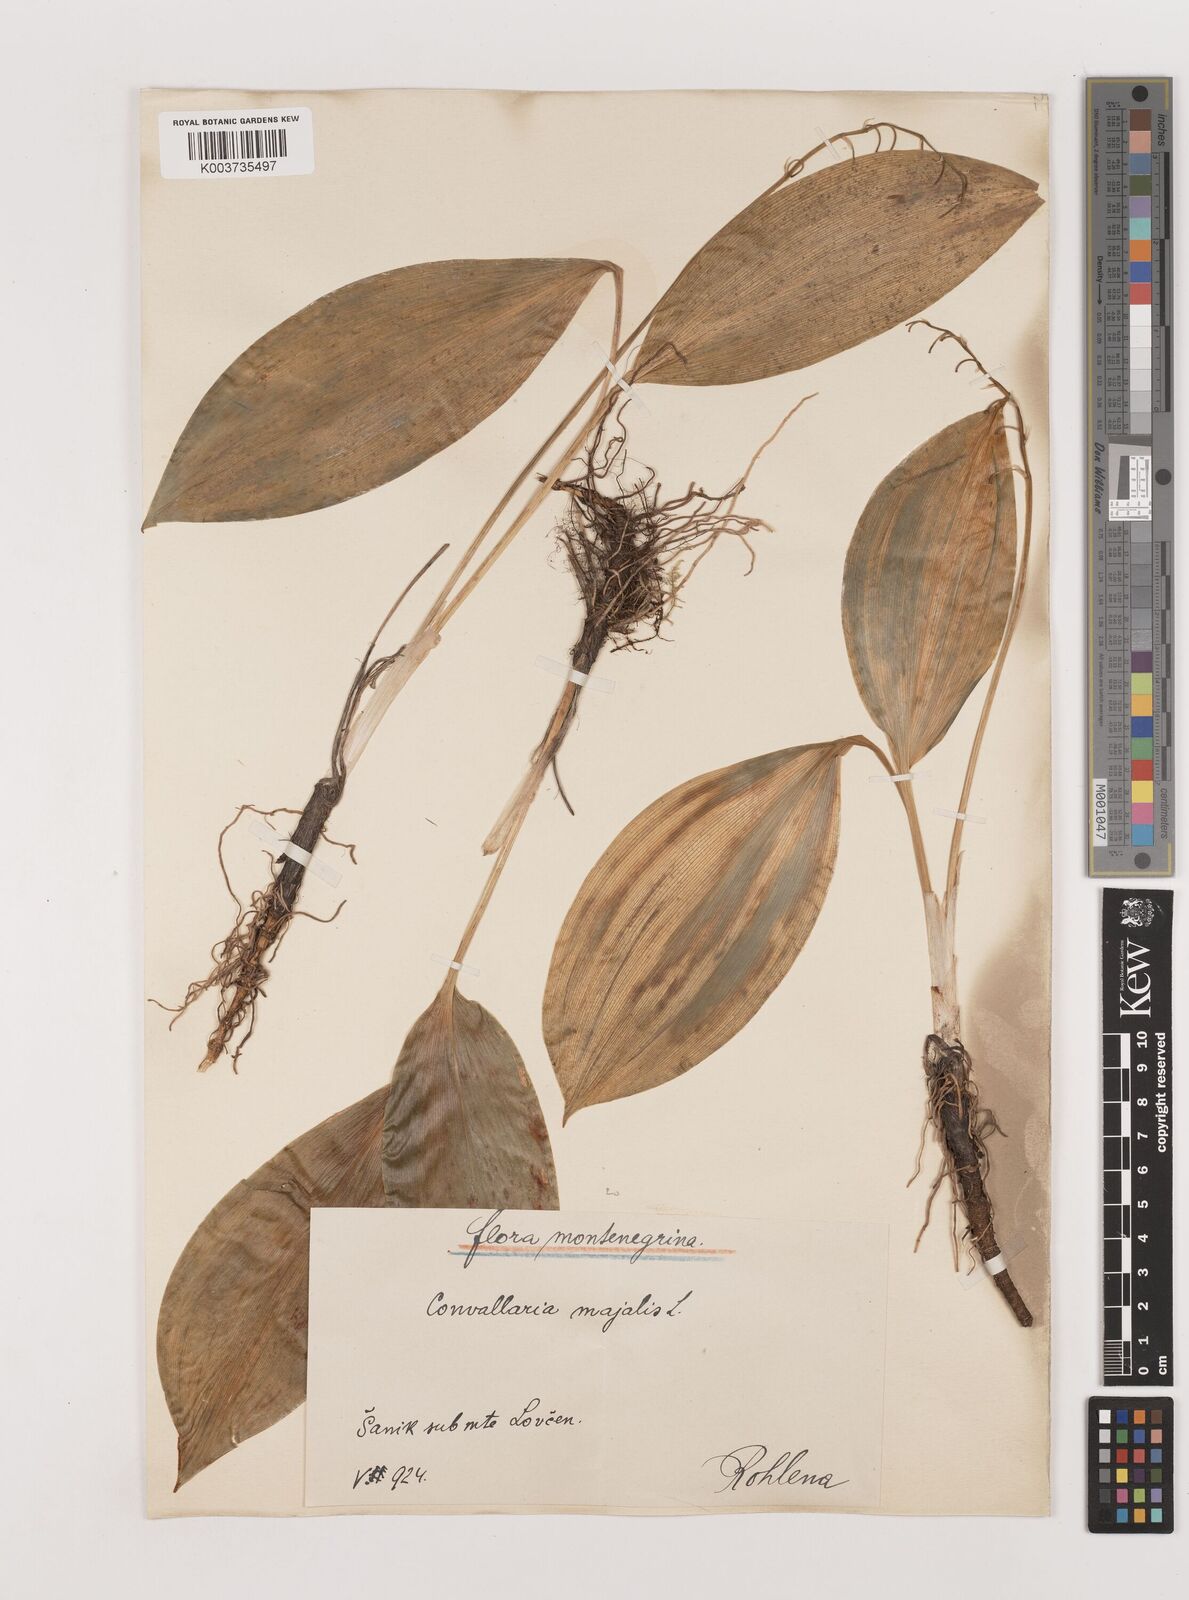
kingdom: Plantae
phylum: Tracheophyta
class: Liliopsida
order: Asparagales
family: Asparagaceae
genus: Convallaria
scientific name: Convallaria majalis
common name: Lily-of-the-valley
